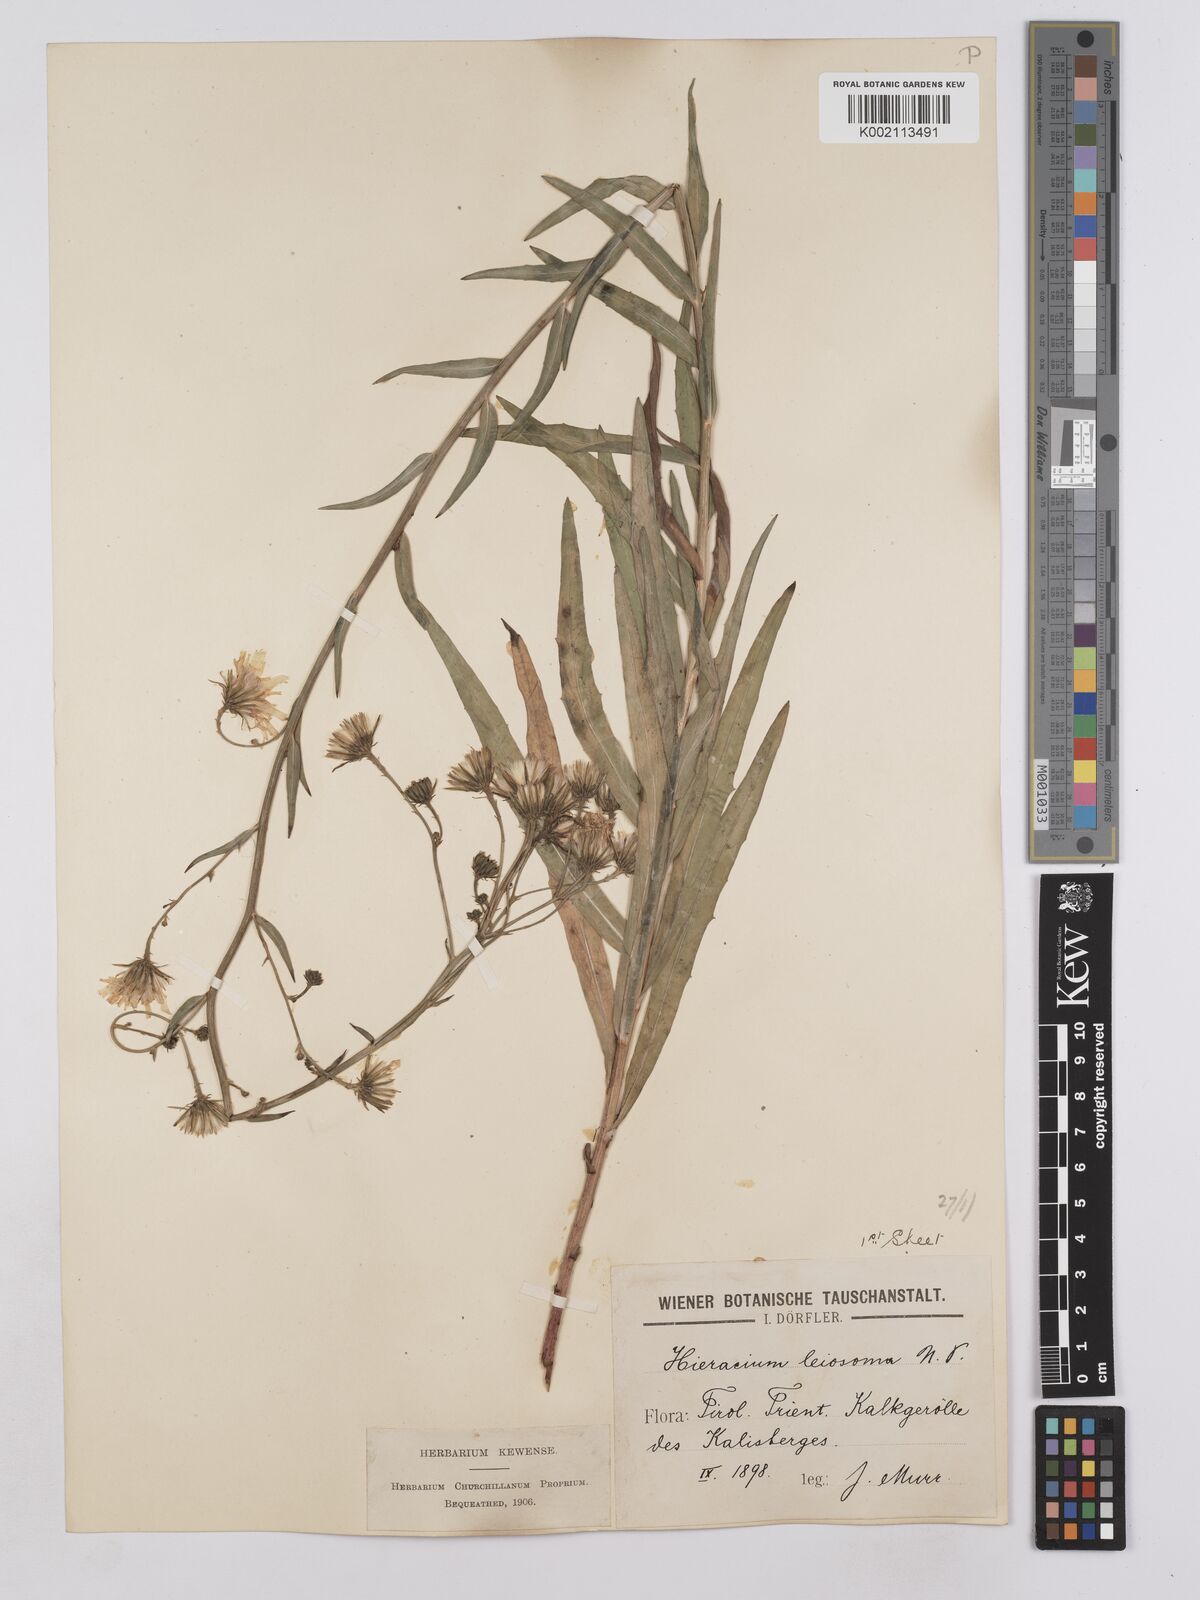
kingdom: Plantae
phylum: Tracheophyta
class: Magnoliopsida
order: Asterales
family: Asteraceae
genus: Hieracium
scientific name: Hieracium leiocephalum
